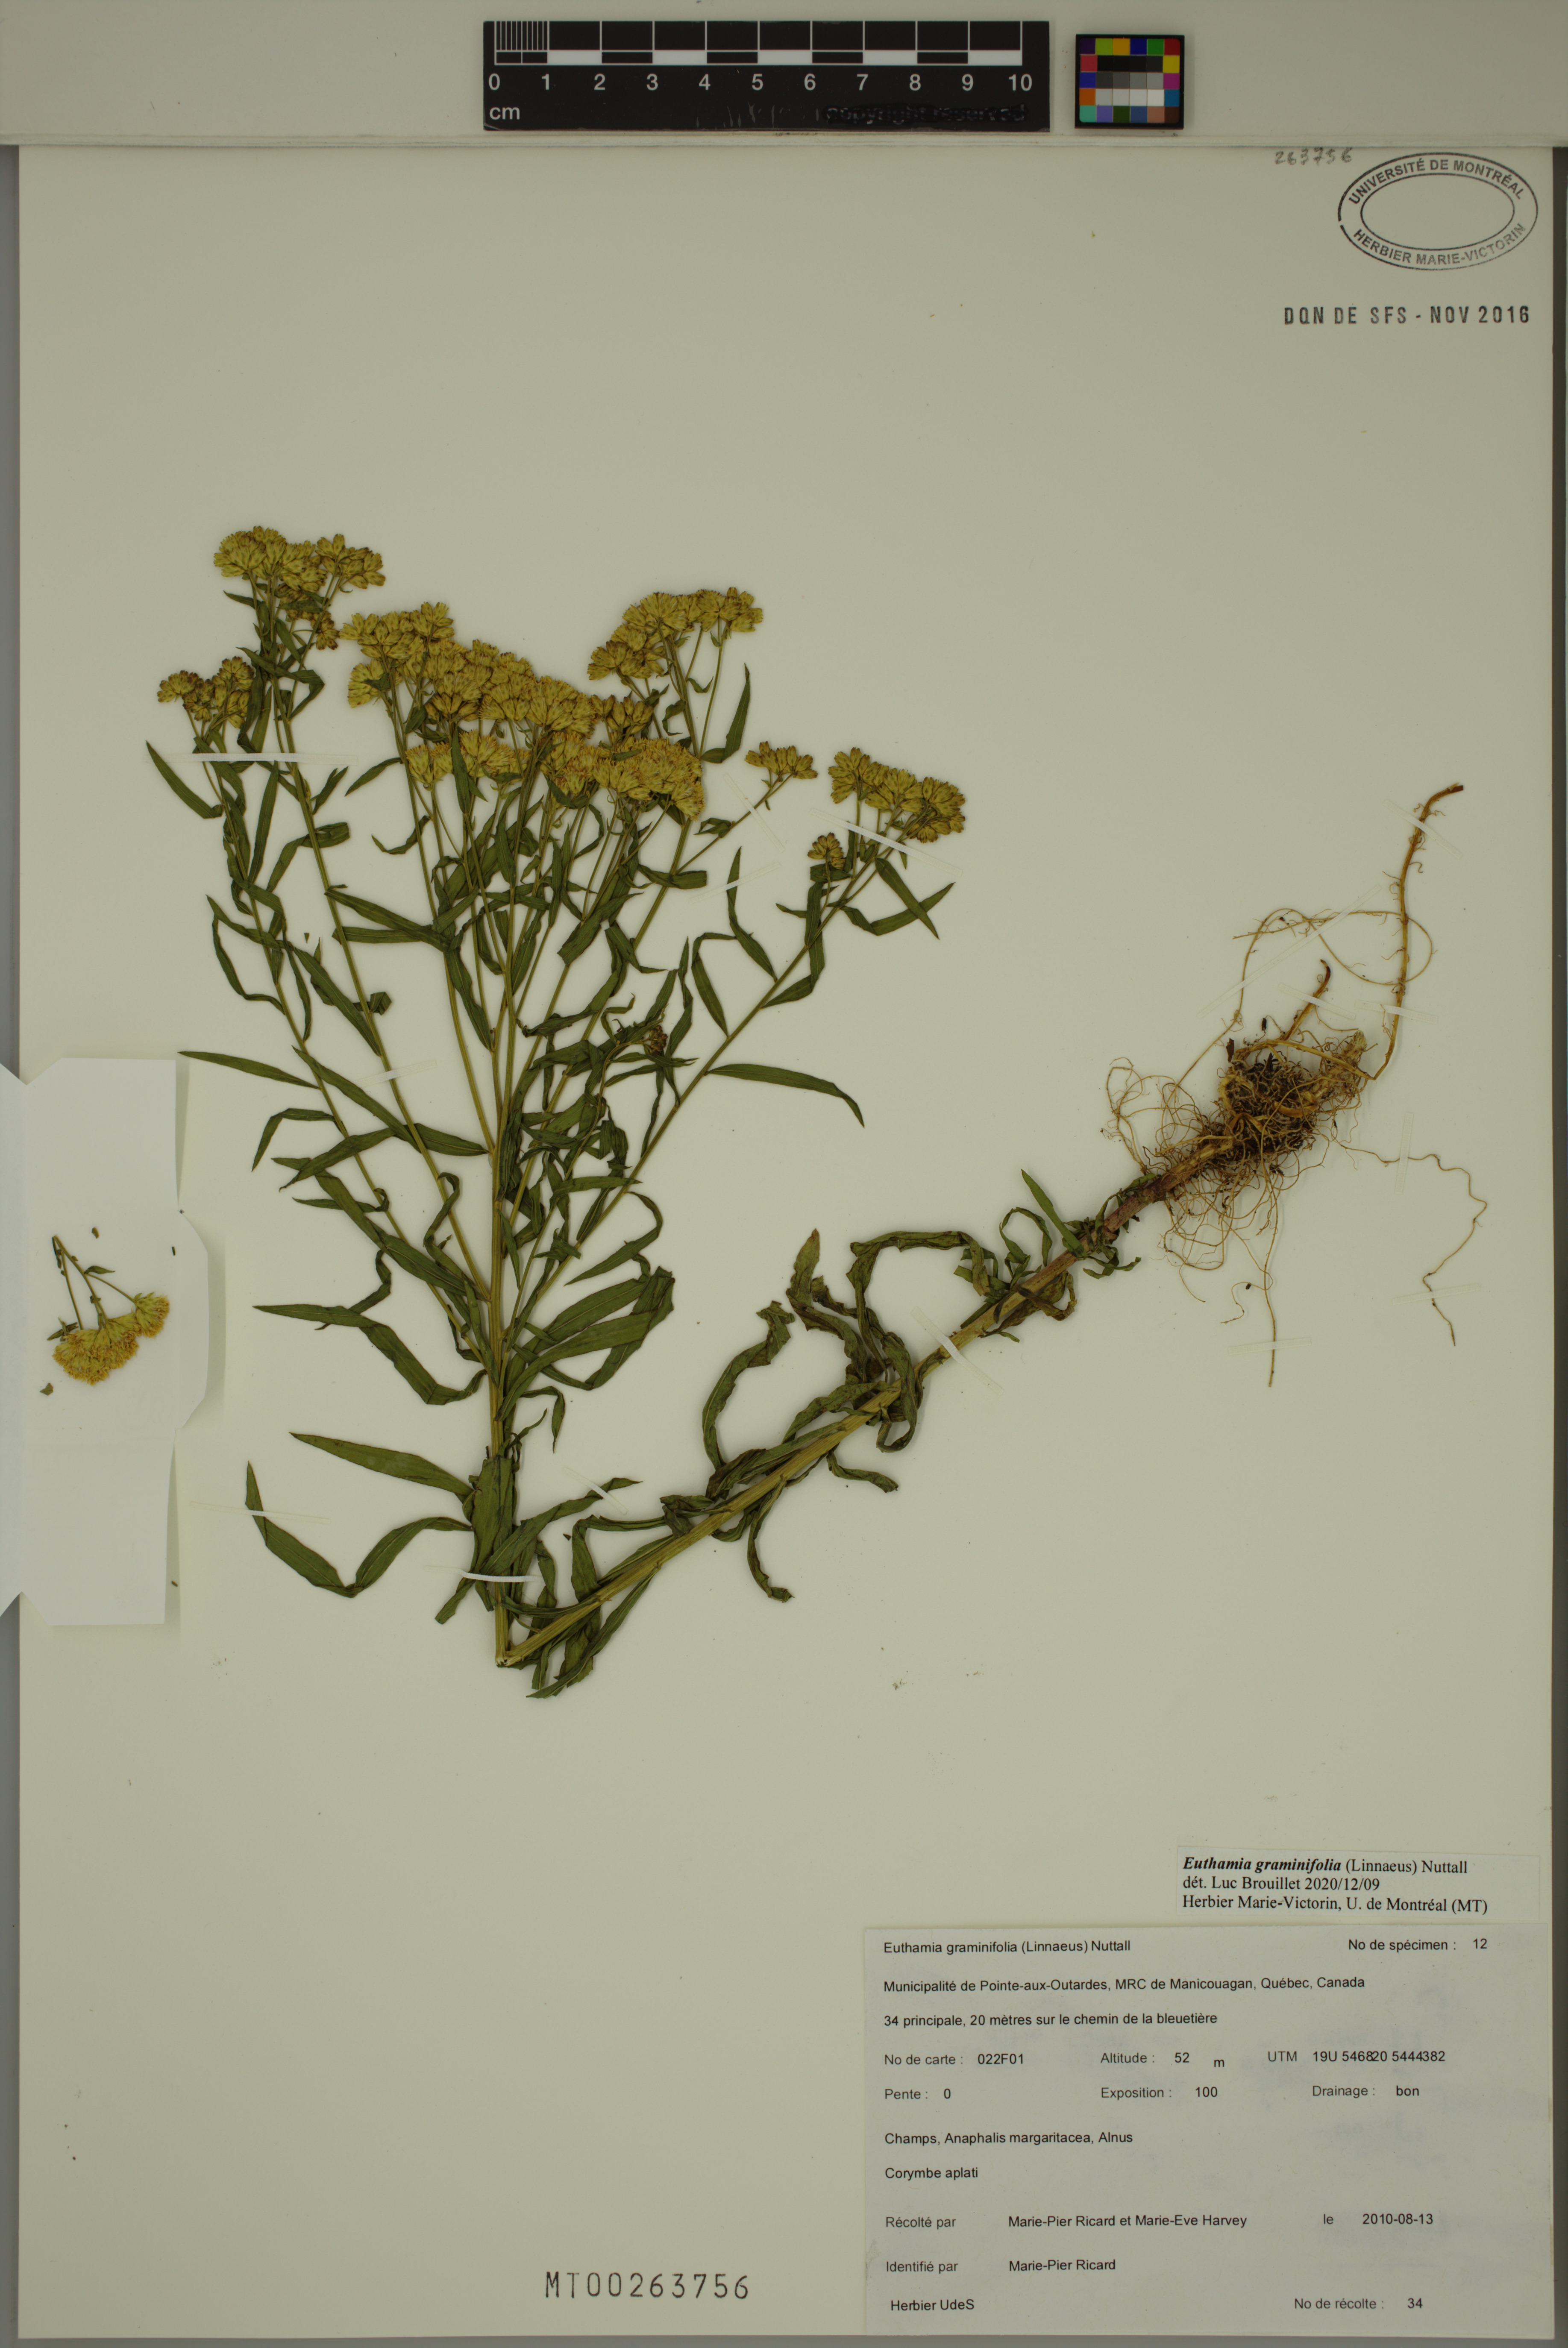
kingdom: Plantae
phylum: Tracheophyta
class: Magnoliopsida
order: Asterales
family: Asteraceae
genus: Euthamia
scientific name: Euthamia graminifolia
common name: Common goldentop
